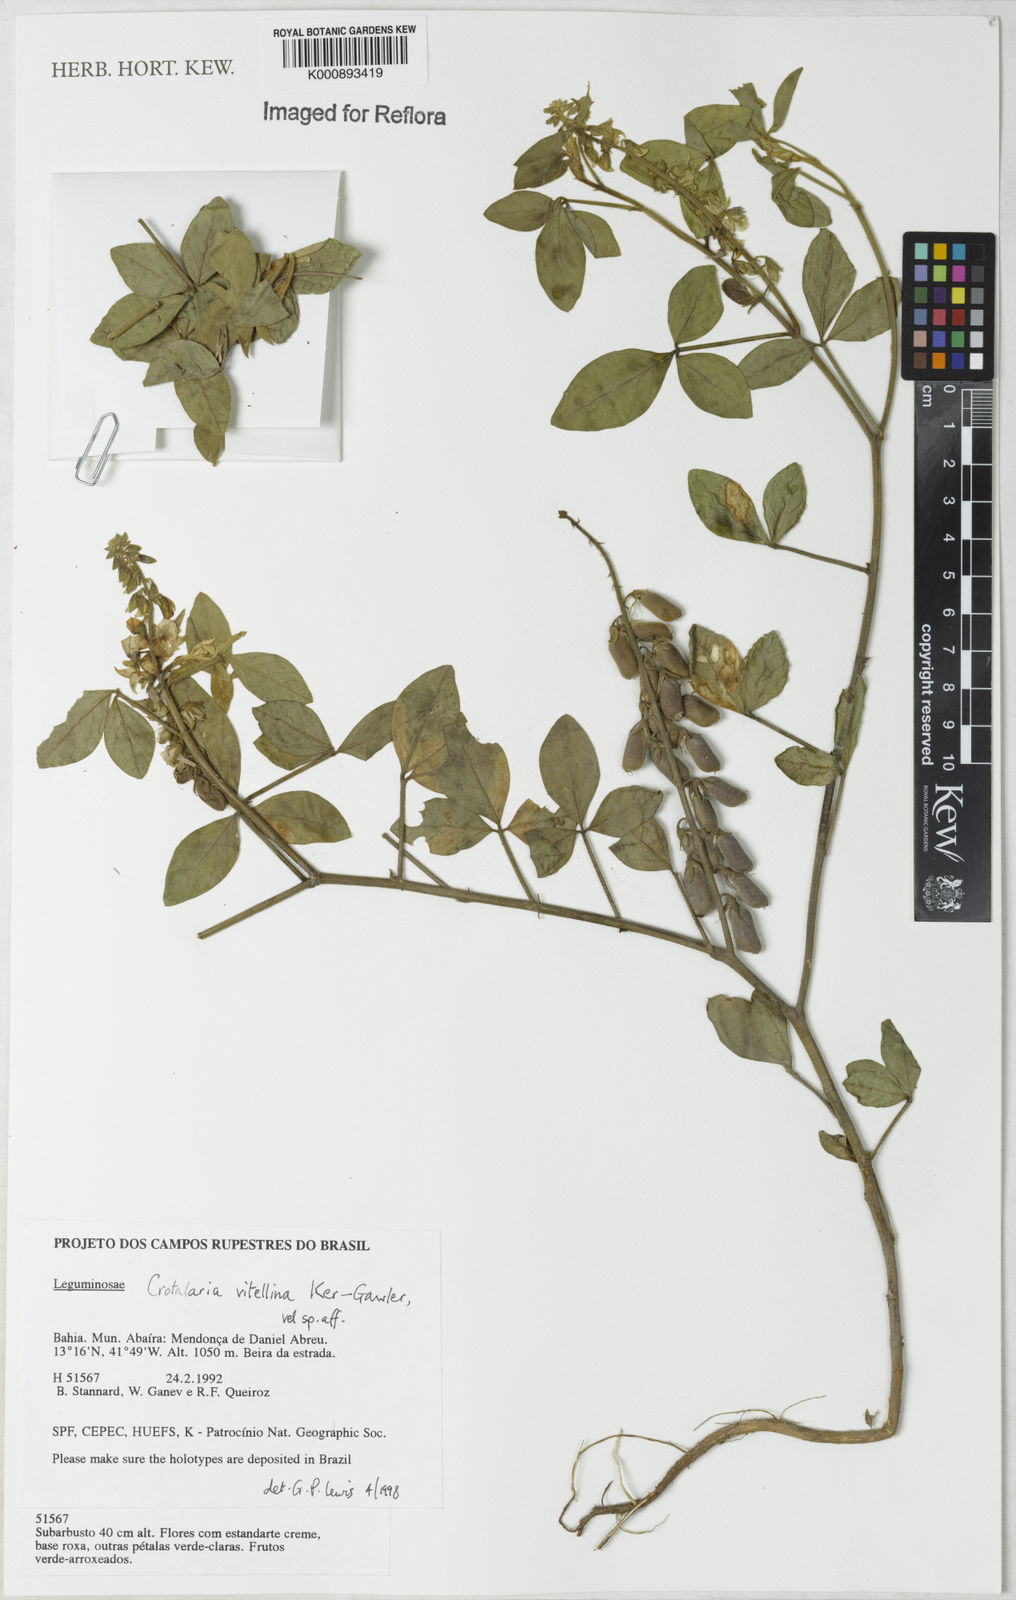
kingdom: Plantae
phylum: Tracheophyta
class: Magnoliopsida
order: Fabales
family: Fabaceae
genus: Crotalaria
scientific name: Crotalaria vitellina
